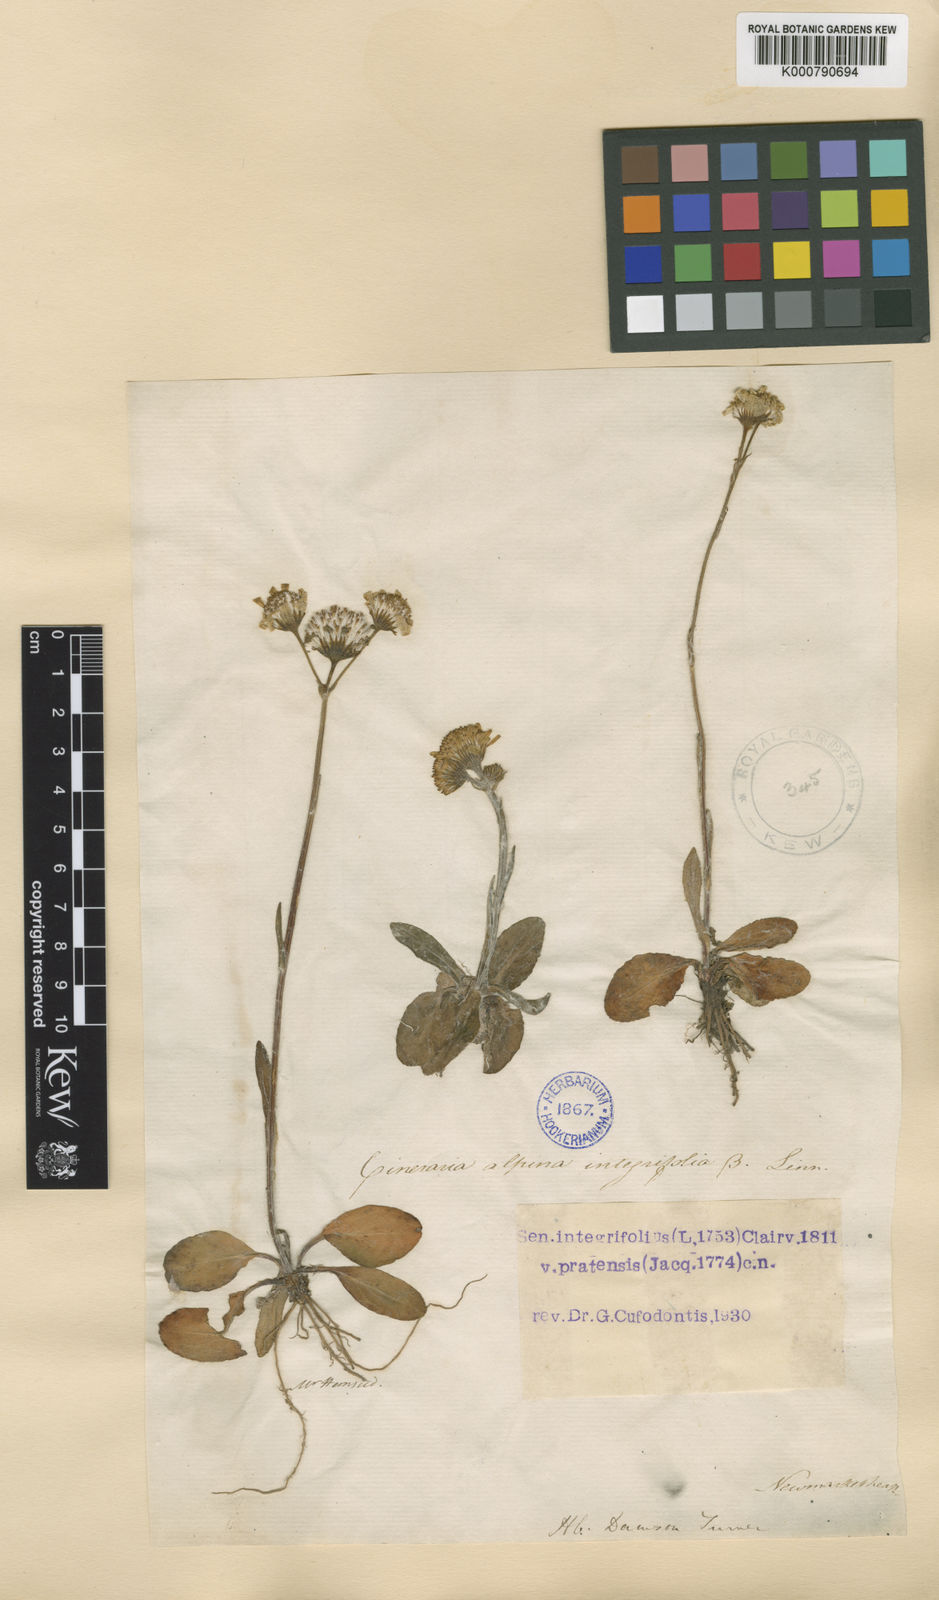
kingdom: Plantae
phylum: Tracheophyta
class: Magnoliopsida
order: Asterales
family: Asteraceae
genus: Tephroseris
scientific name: Tephroseris integrifolia
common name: Field fleawort
